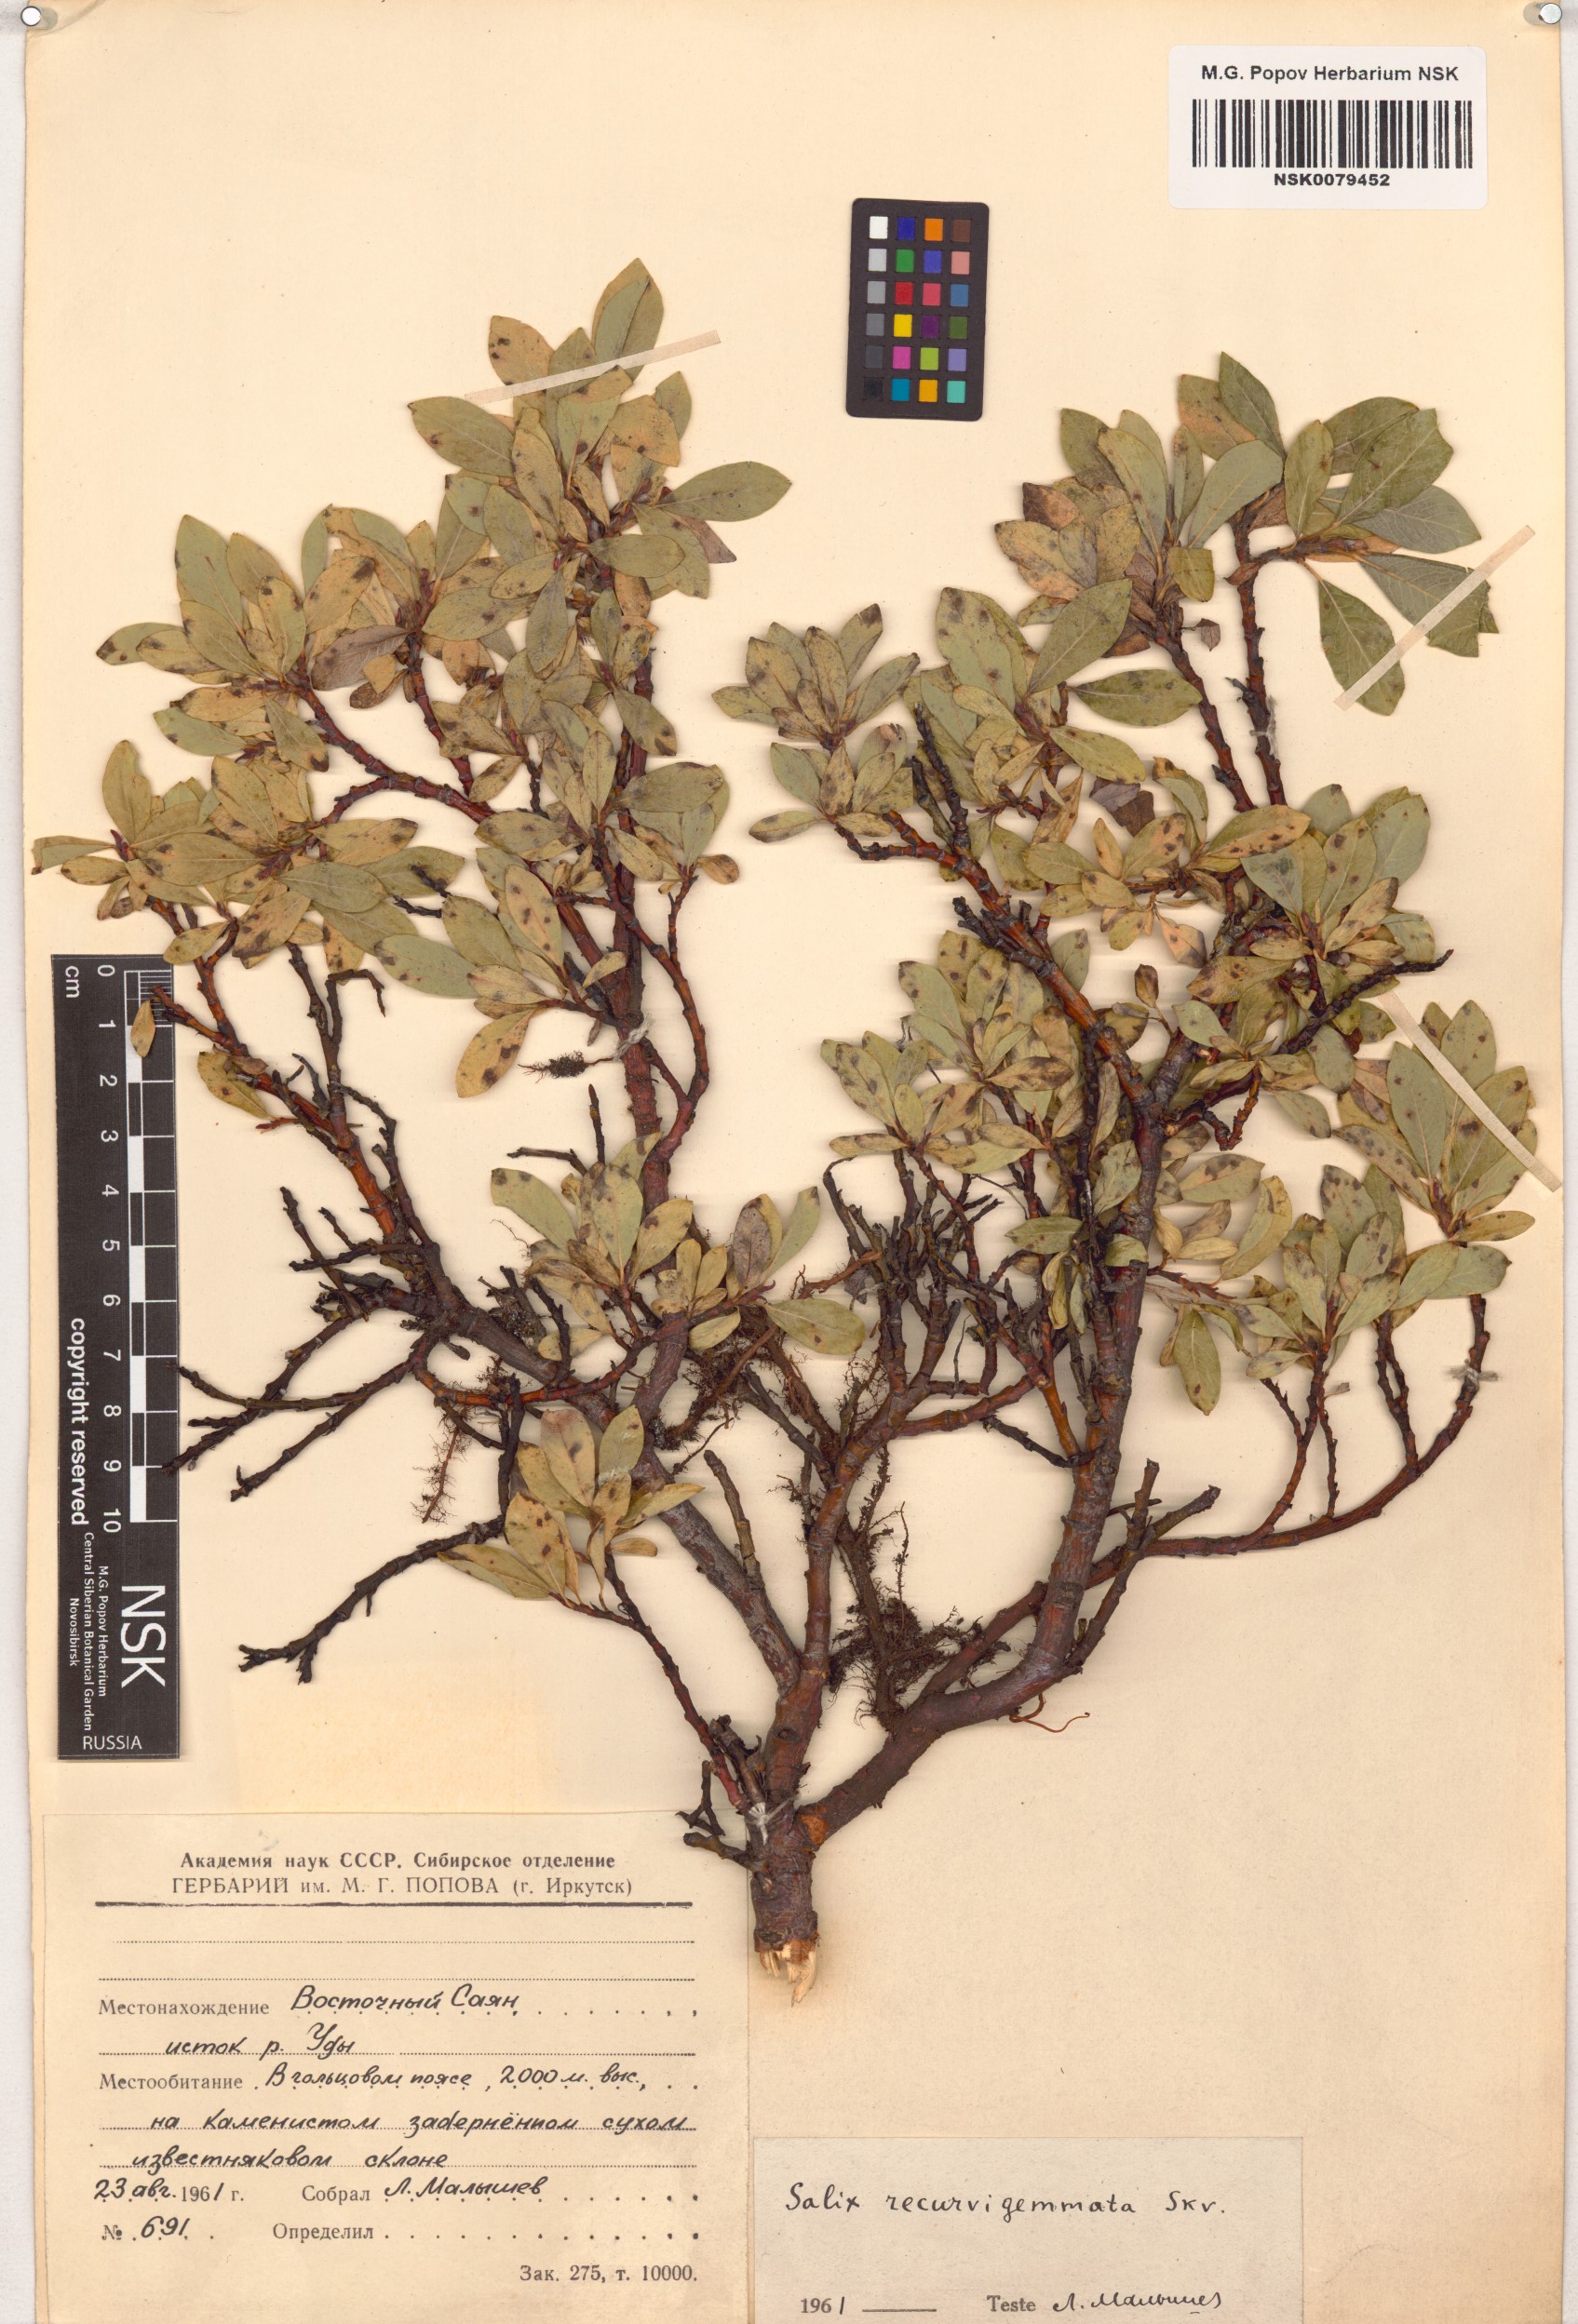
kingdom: Plantae
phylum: Tracheophyta
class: Magnoliopsida
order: Malpighiales
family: Salicaceae
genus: Salix
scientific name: Salix recurvigemmata
